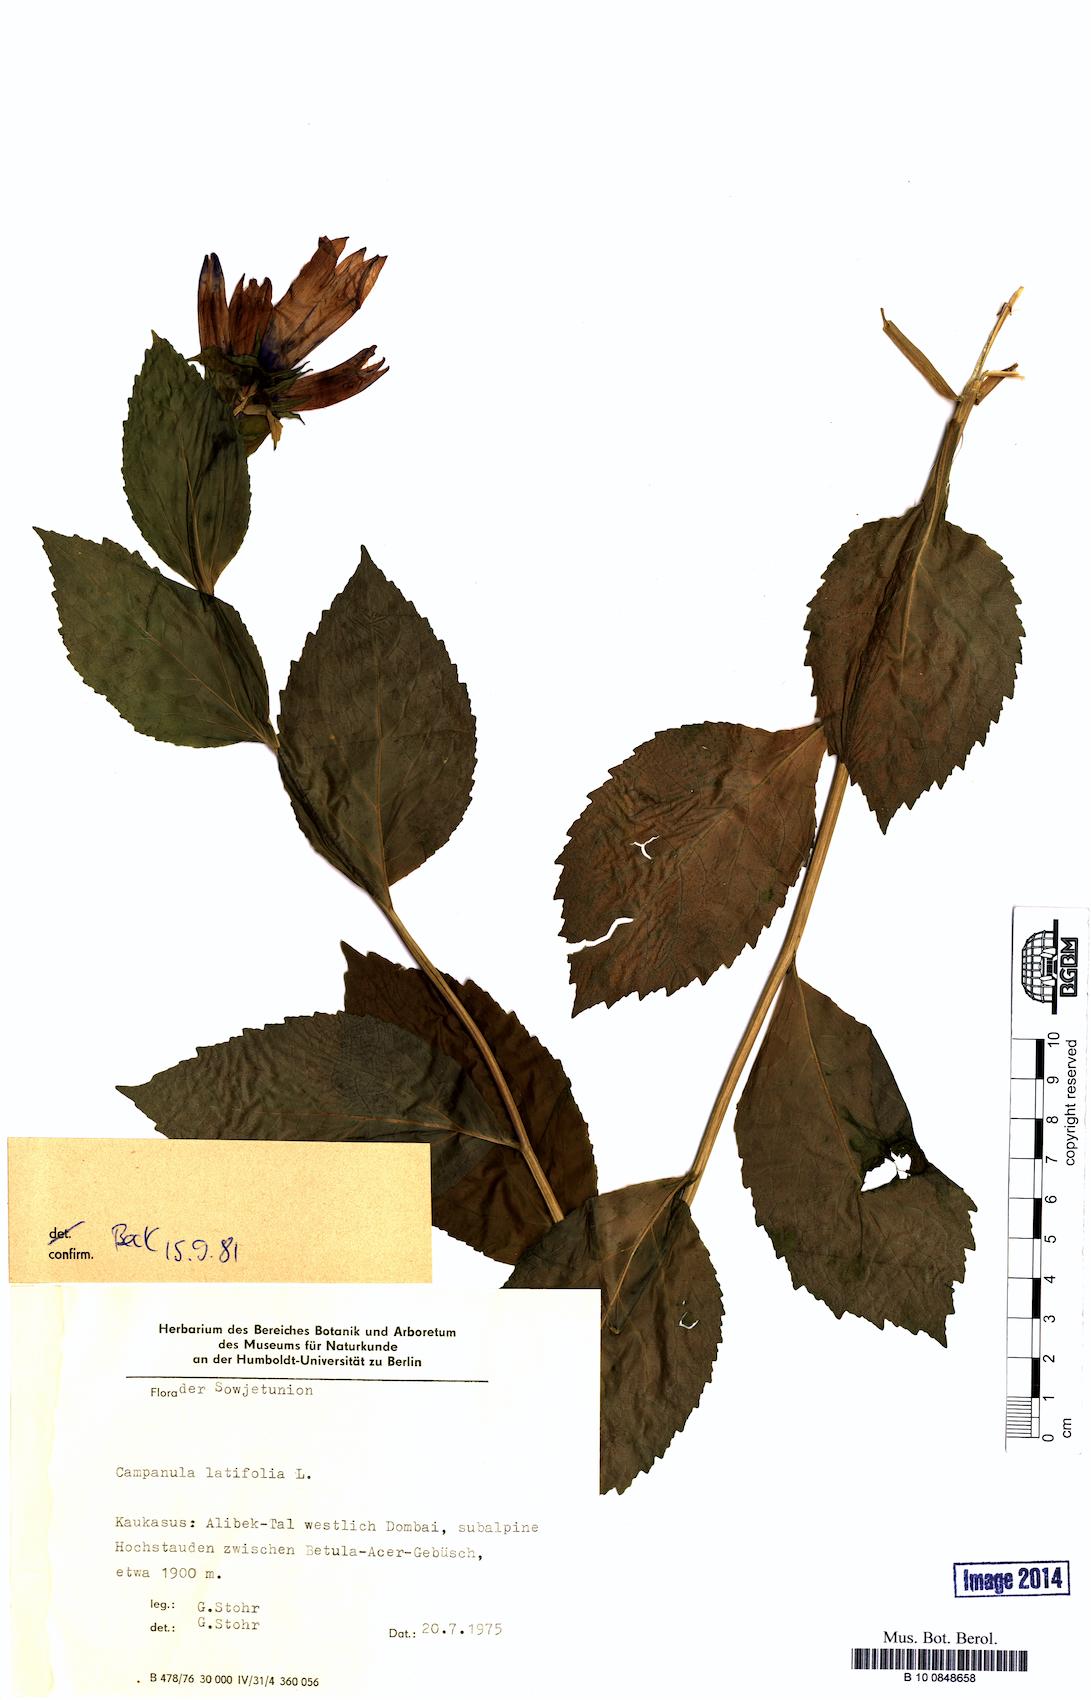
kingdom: Plantae
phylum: Tracheophyta
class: Magnoliopsida
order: Asterales
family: Campanulaceae
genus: Campanula
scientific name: Campanula latifolia
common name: Giant bellflower
